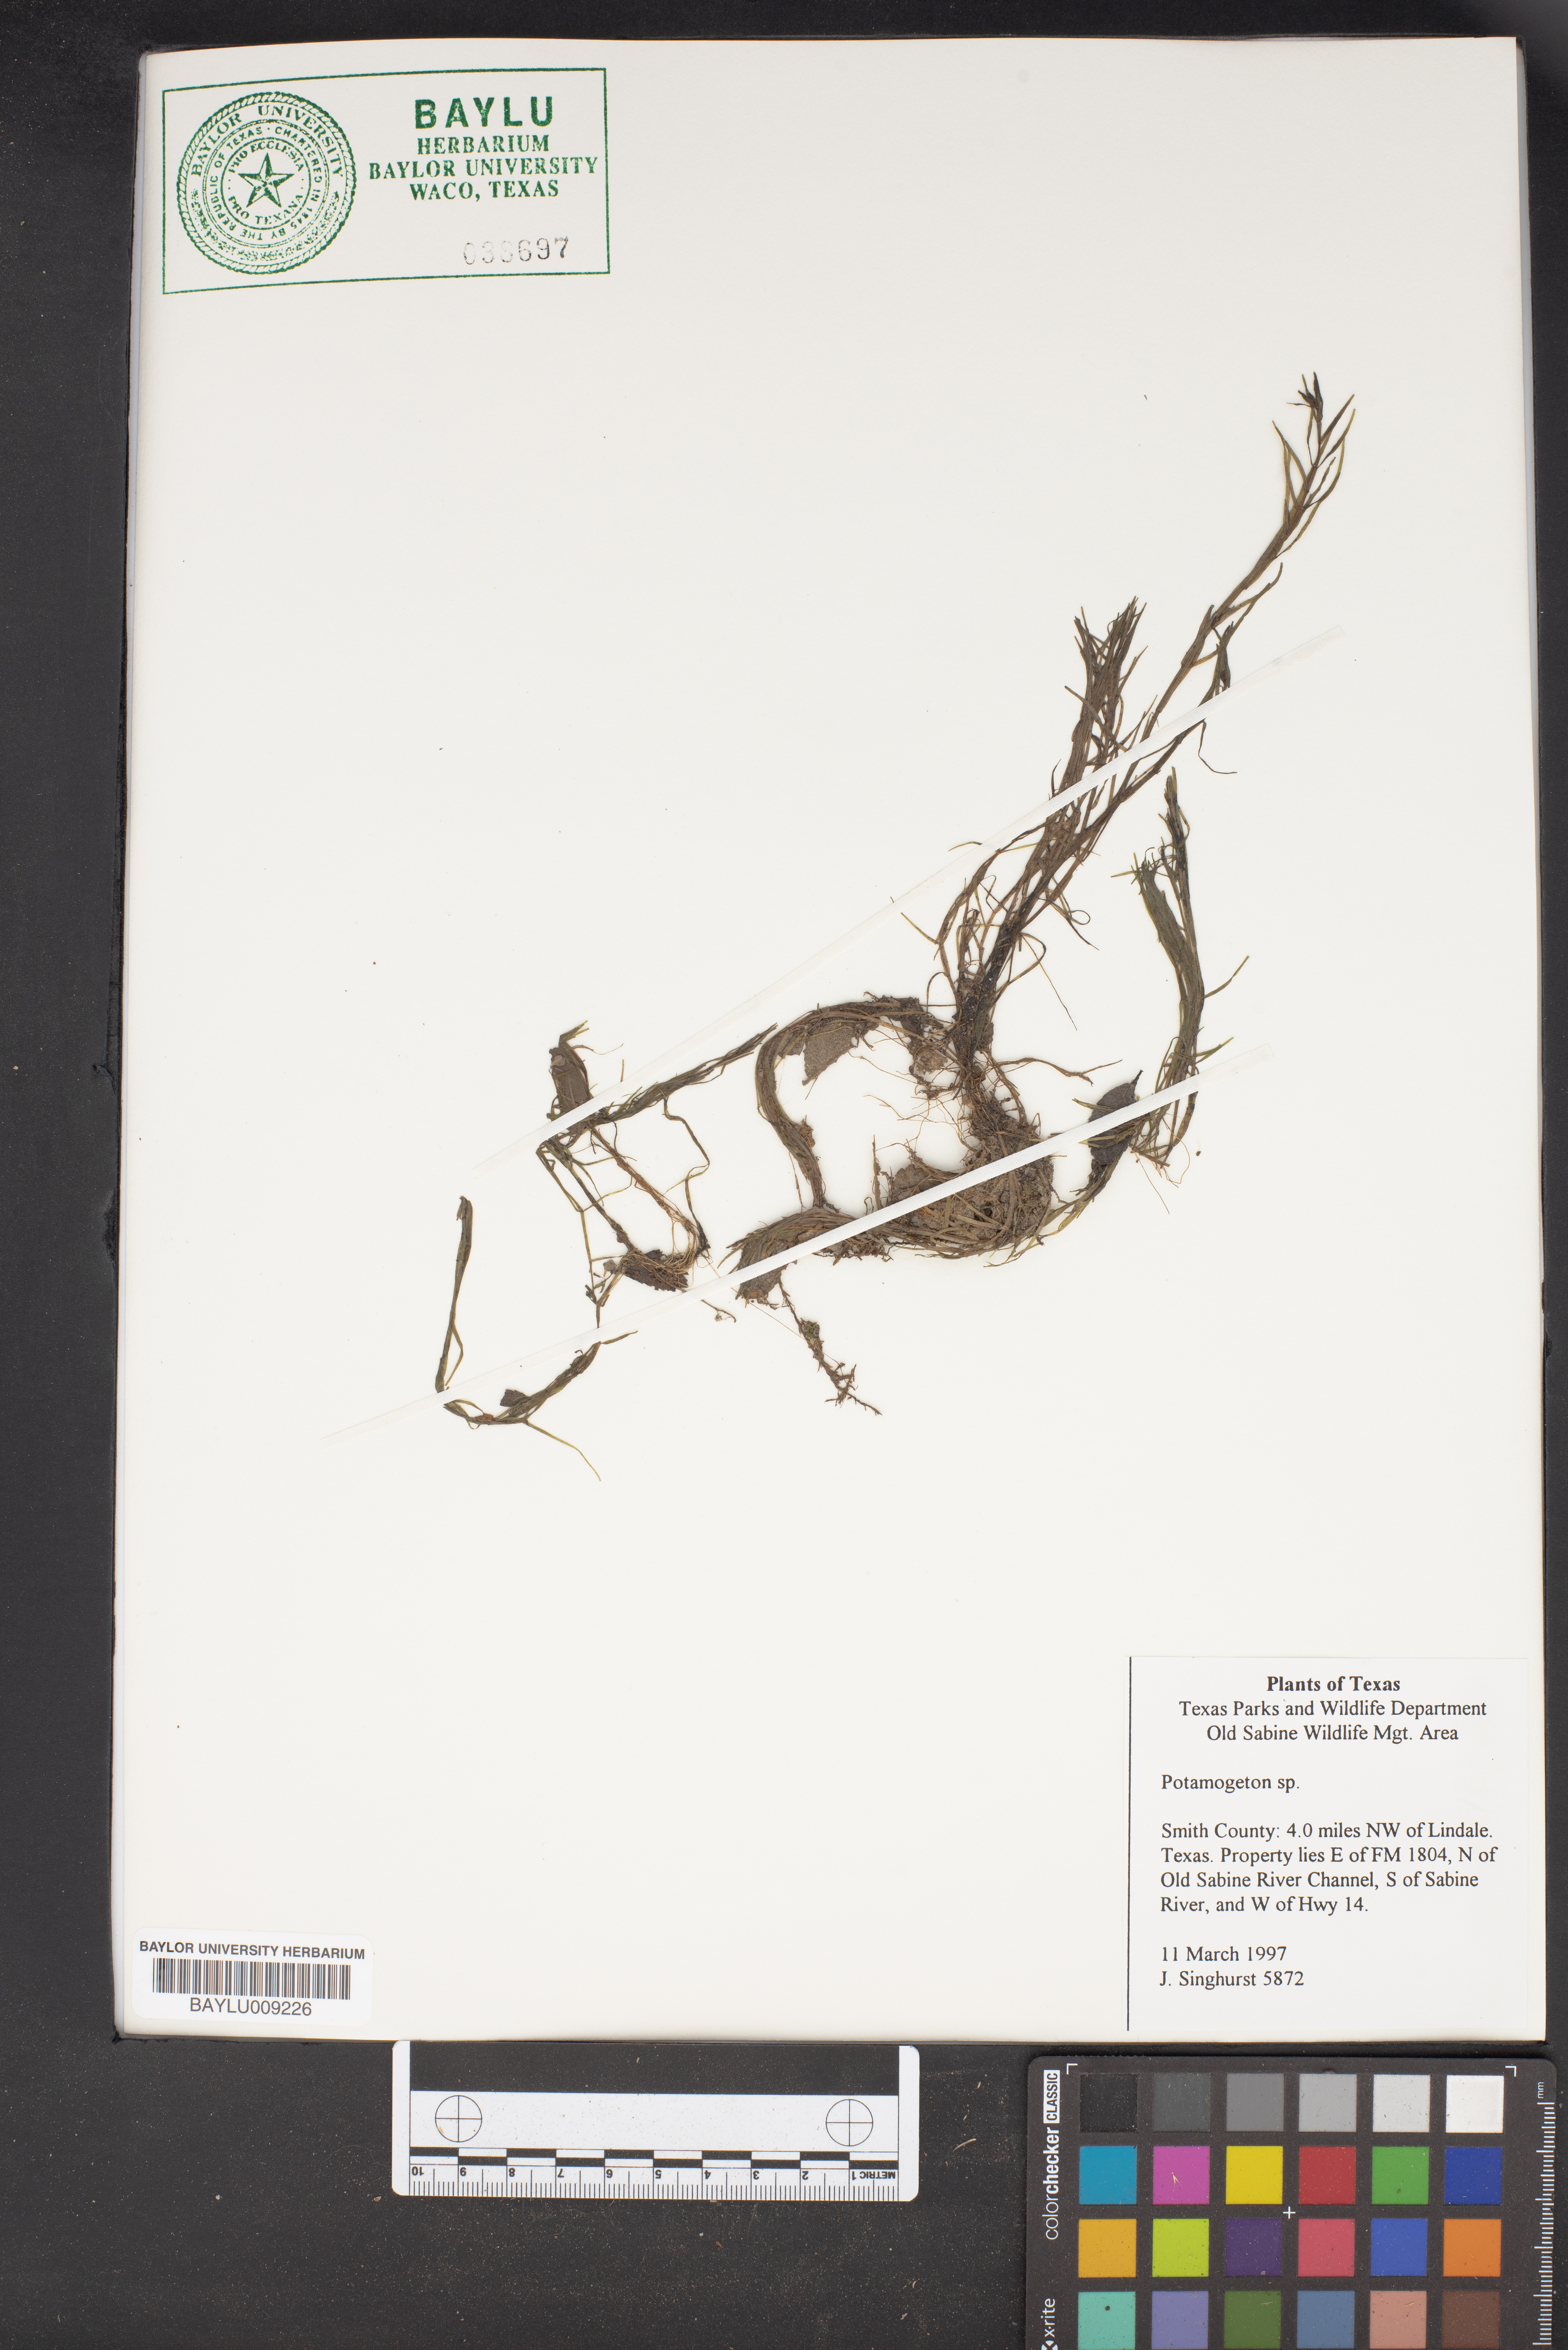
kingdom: Plantae
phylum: Tracheophyta
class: Liliopsida
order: Alismatales
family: Potamogetonaceae
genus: Potamogeton
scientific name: Potamogeton
